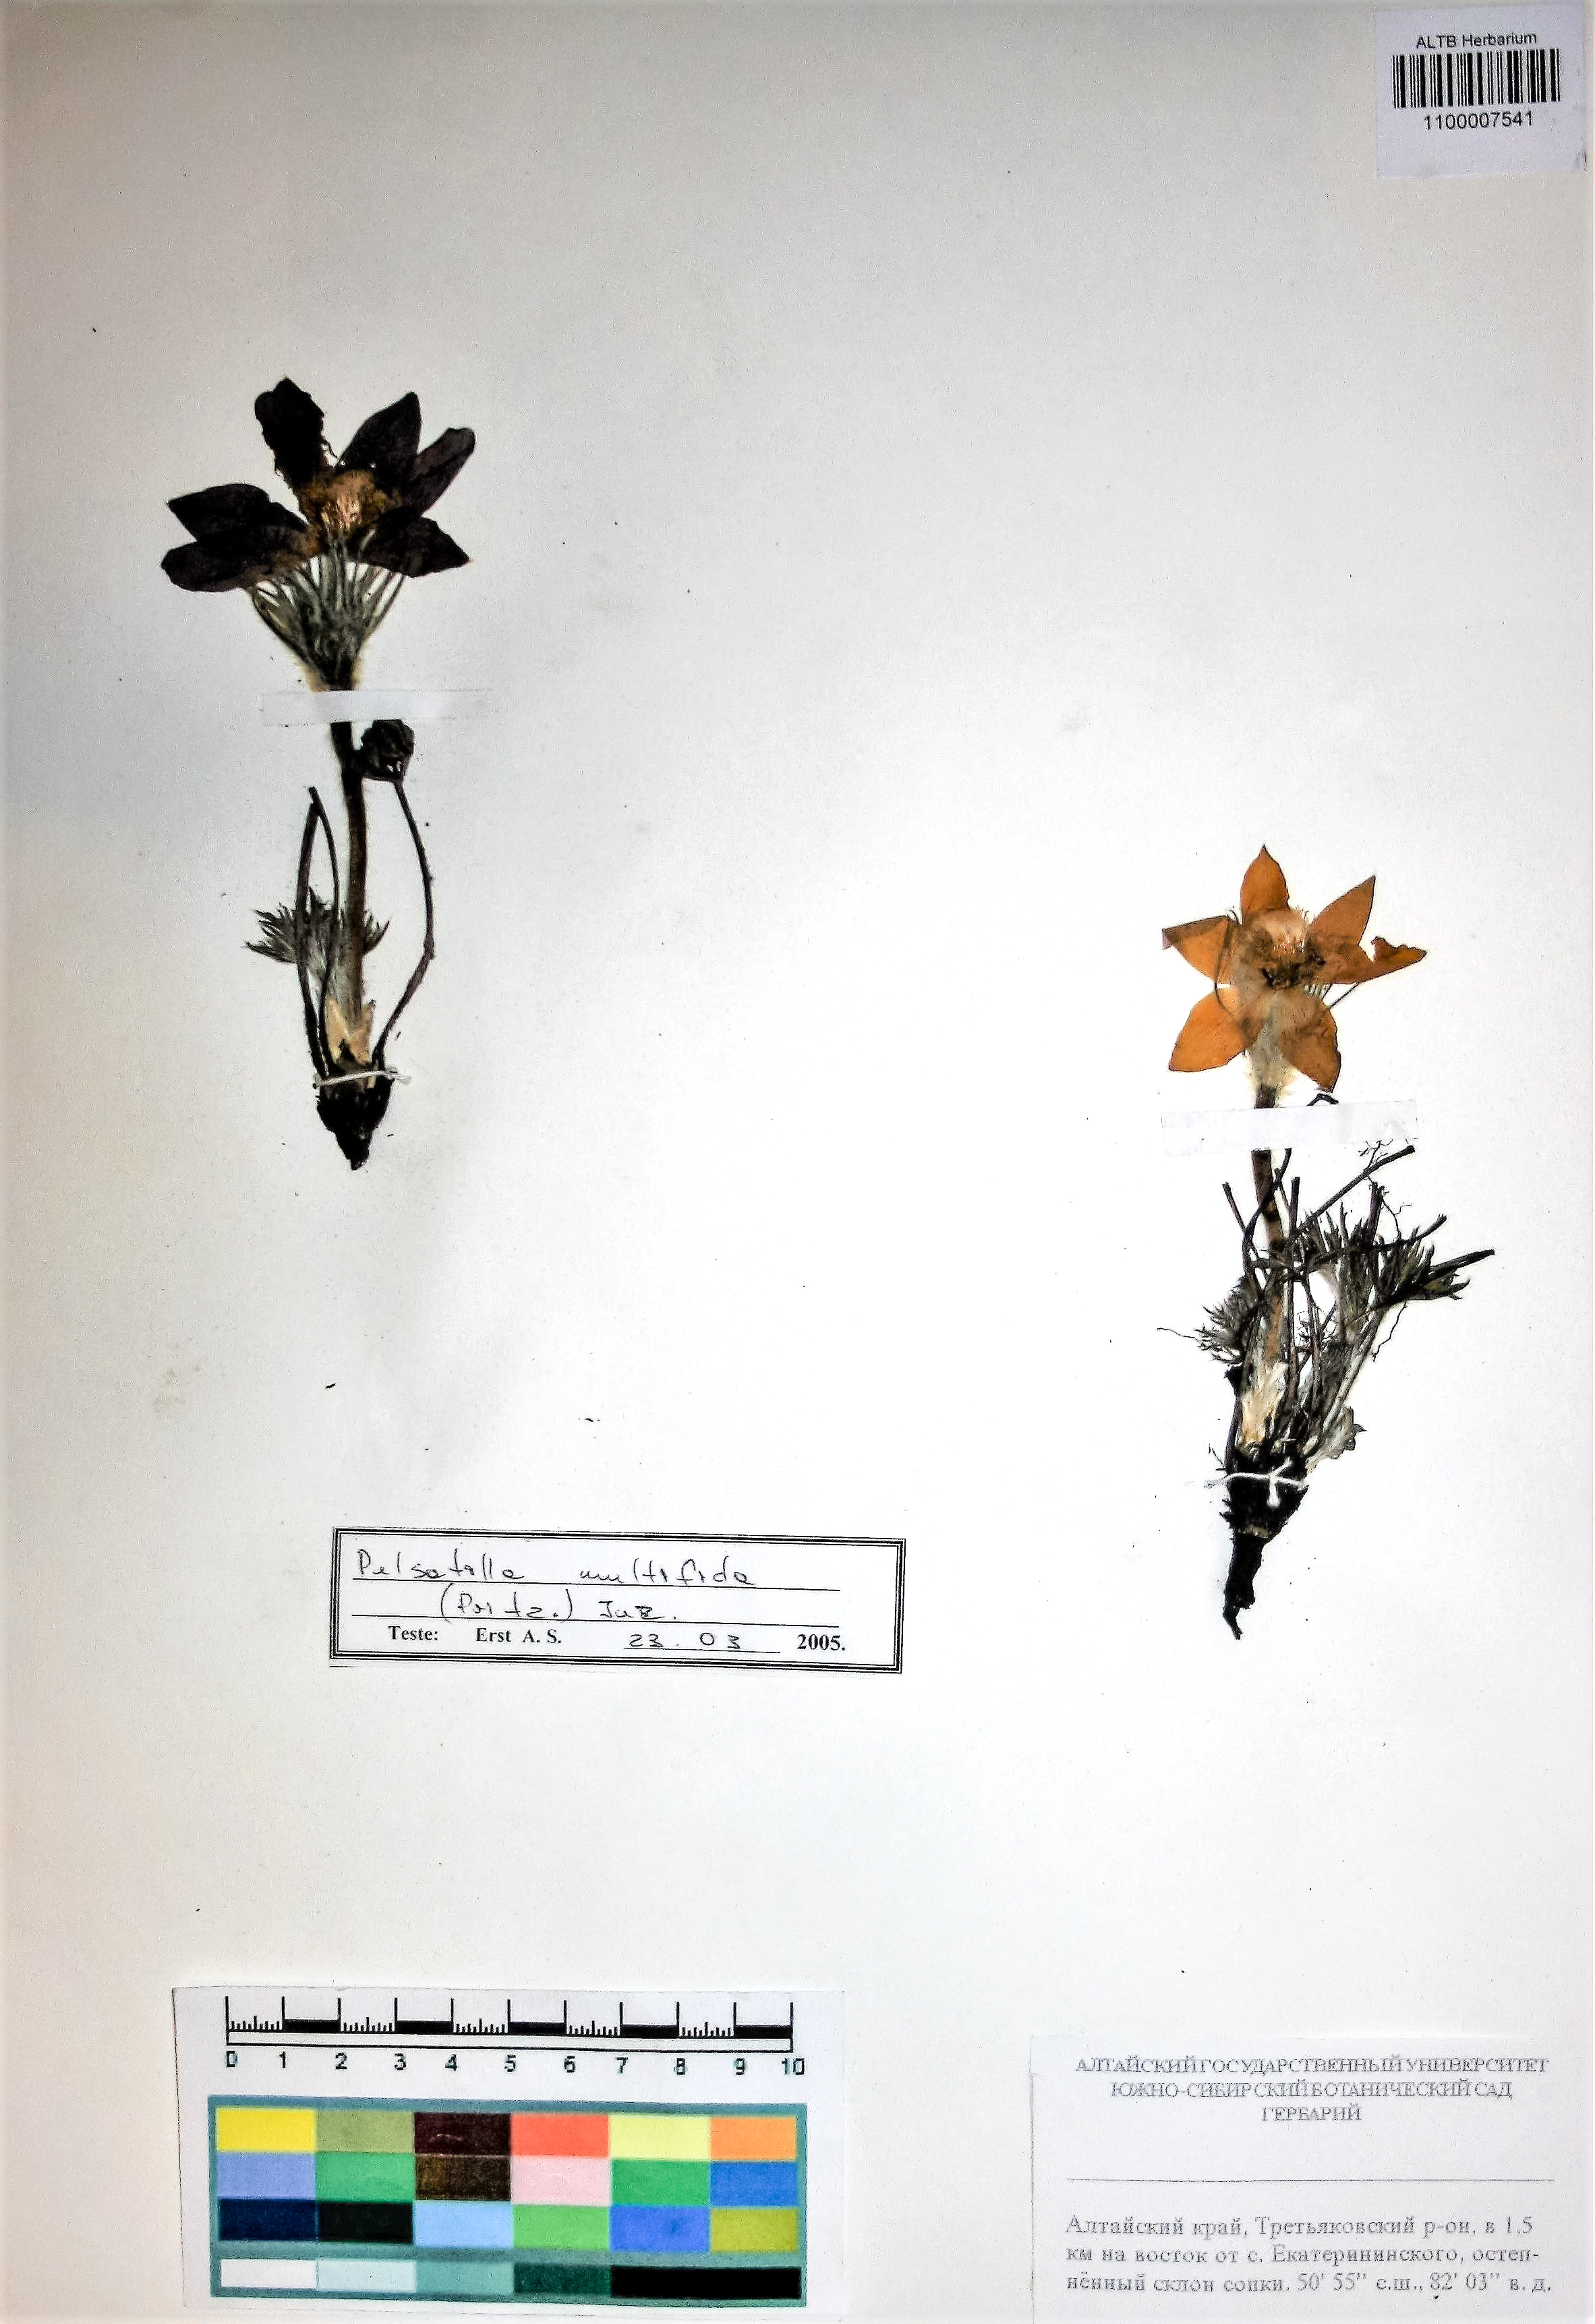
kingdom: Plantae
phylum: Tracheophyta
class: Magnoliopsida
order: Ranunculales
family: Ranunculaceae
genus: Pulsatilla
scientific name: Pulsatilla patens
